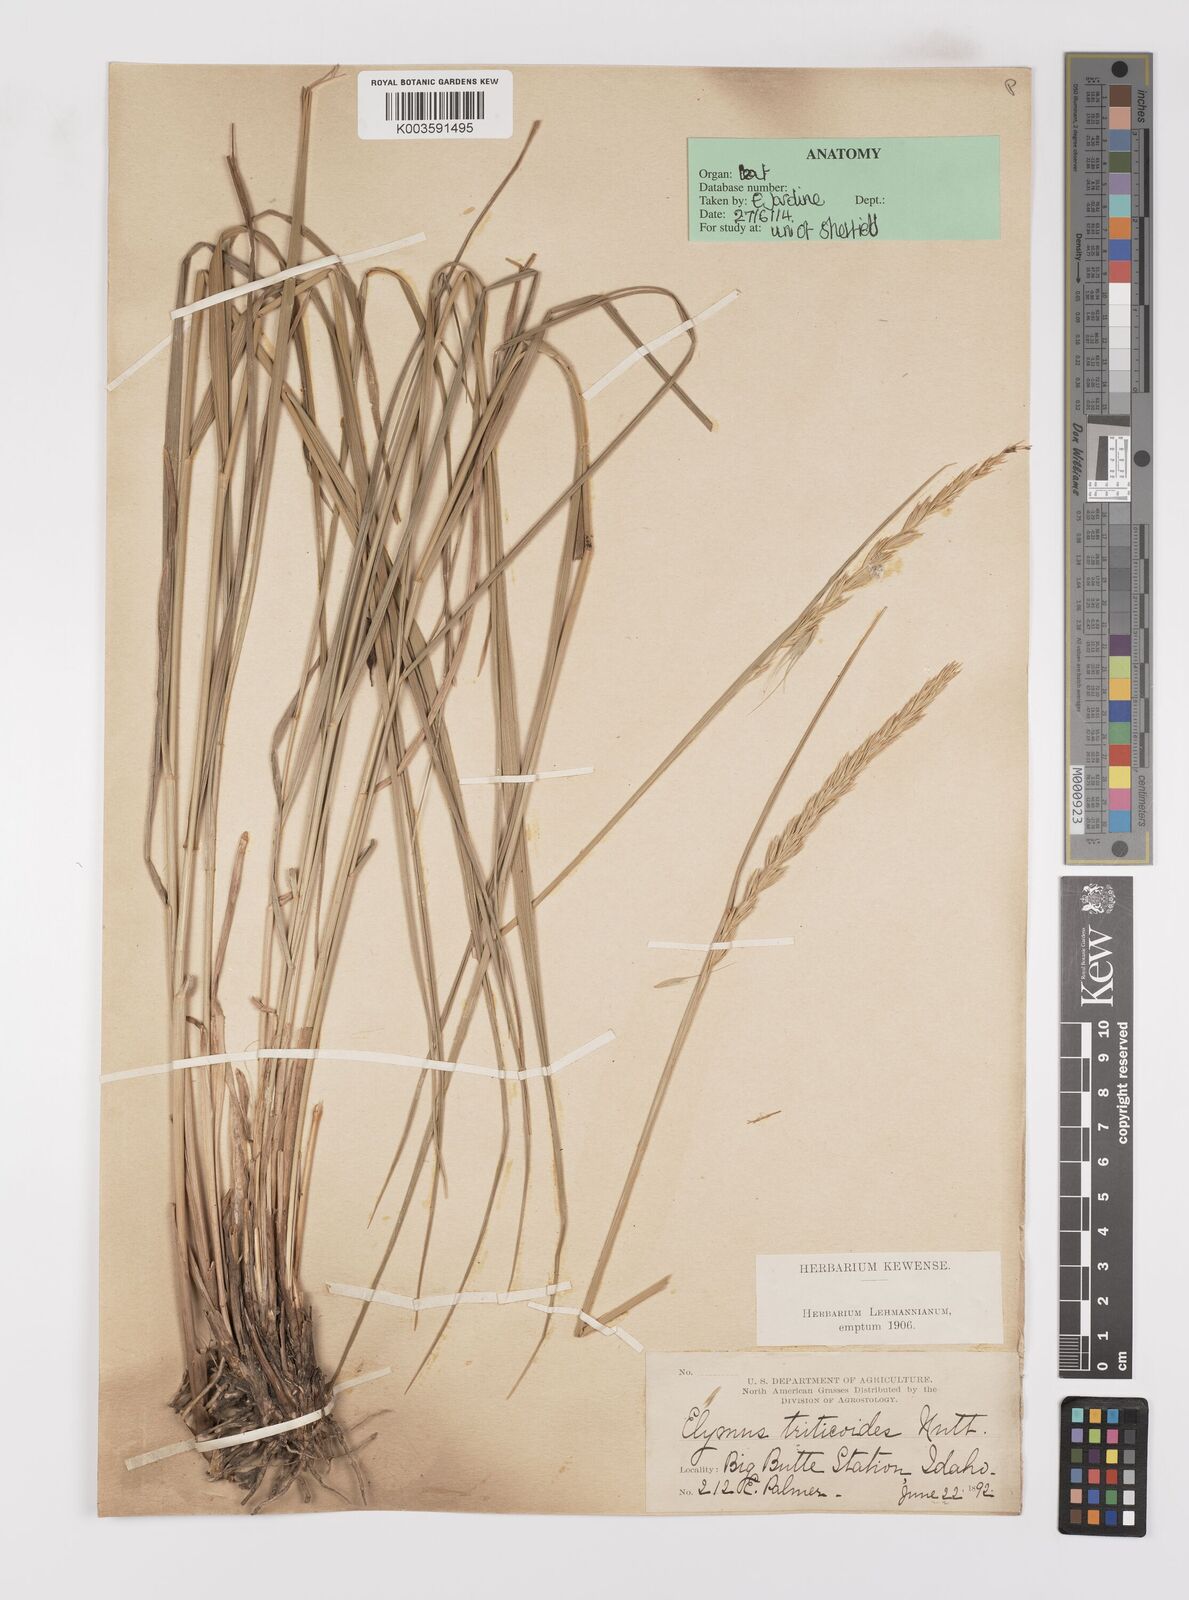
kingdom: Plantae
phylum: Tracheophyta
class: Liliopsida
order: Poales
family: Poaceae
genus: Leymus
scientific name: Leymus triticoides
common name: Beardless wild rye
